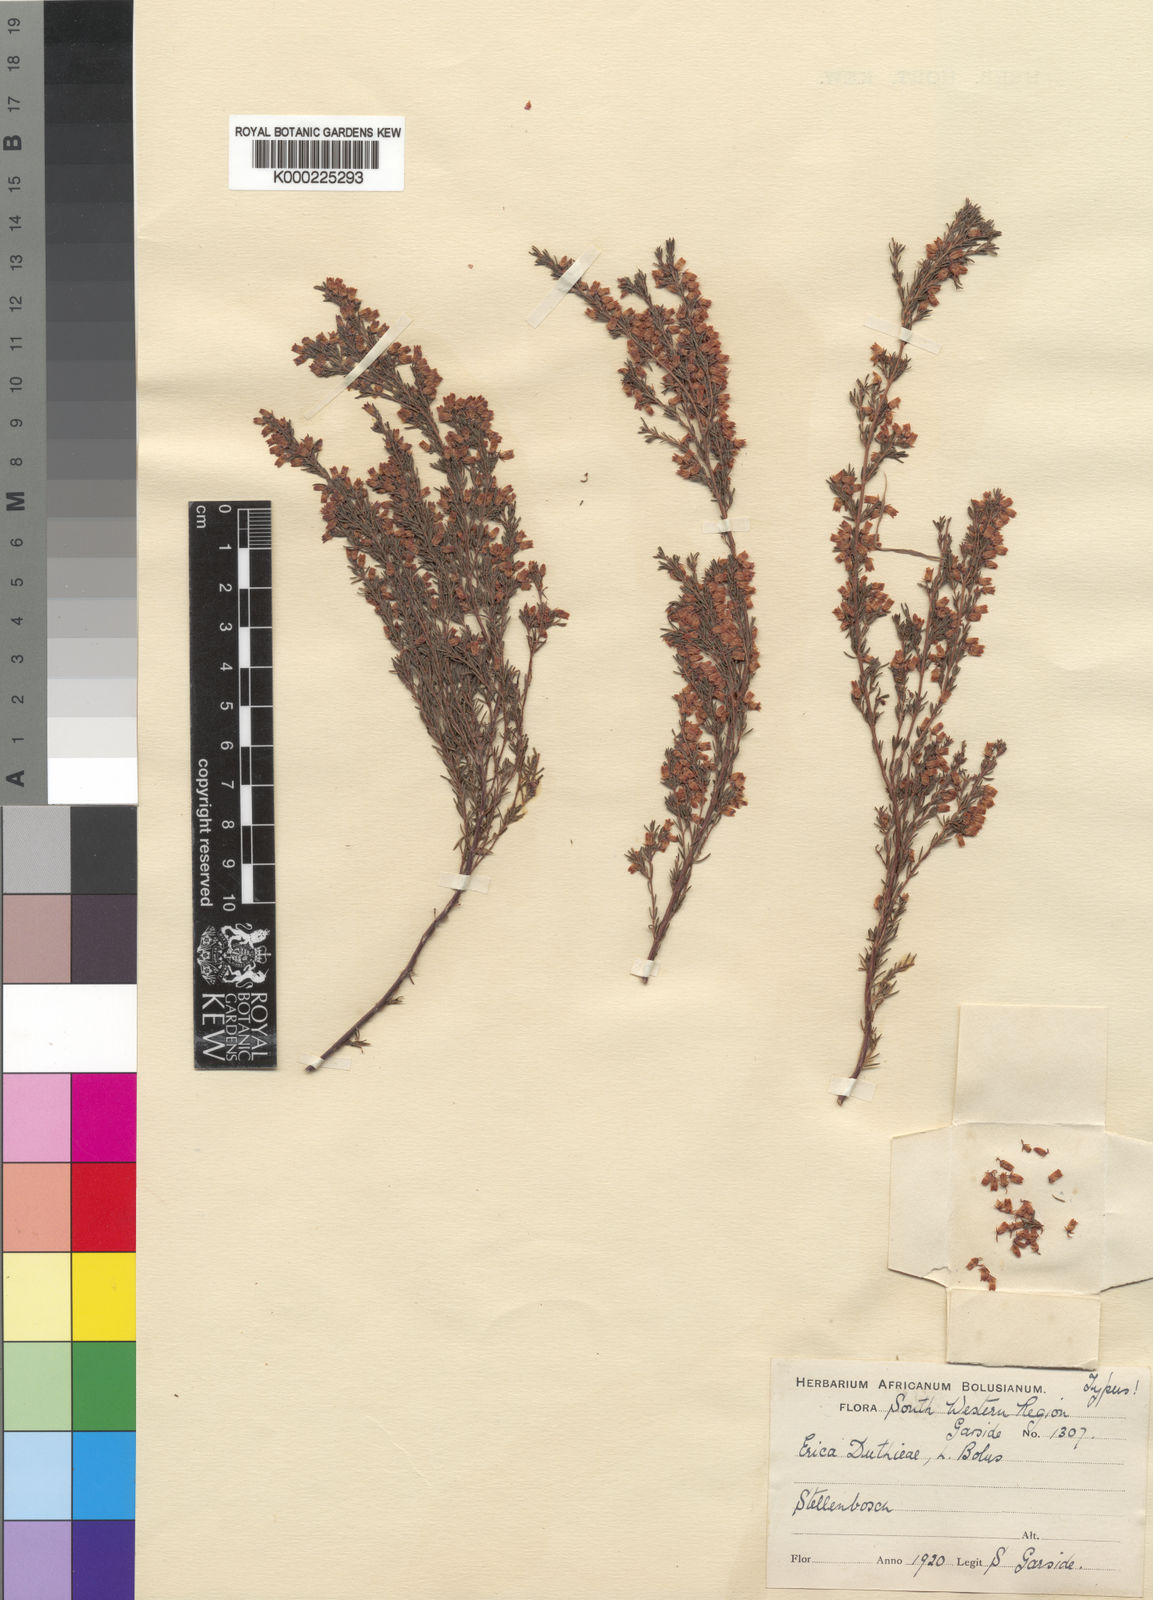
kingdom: Plantae
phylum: Tracheophyta
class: Magnoliopsida
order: Ericales
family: Ericaceae
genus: Erica
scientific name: Erica intervallaris
